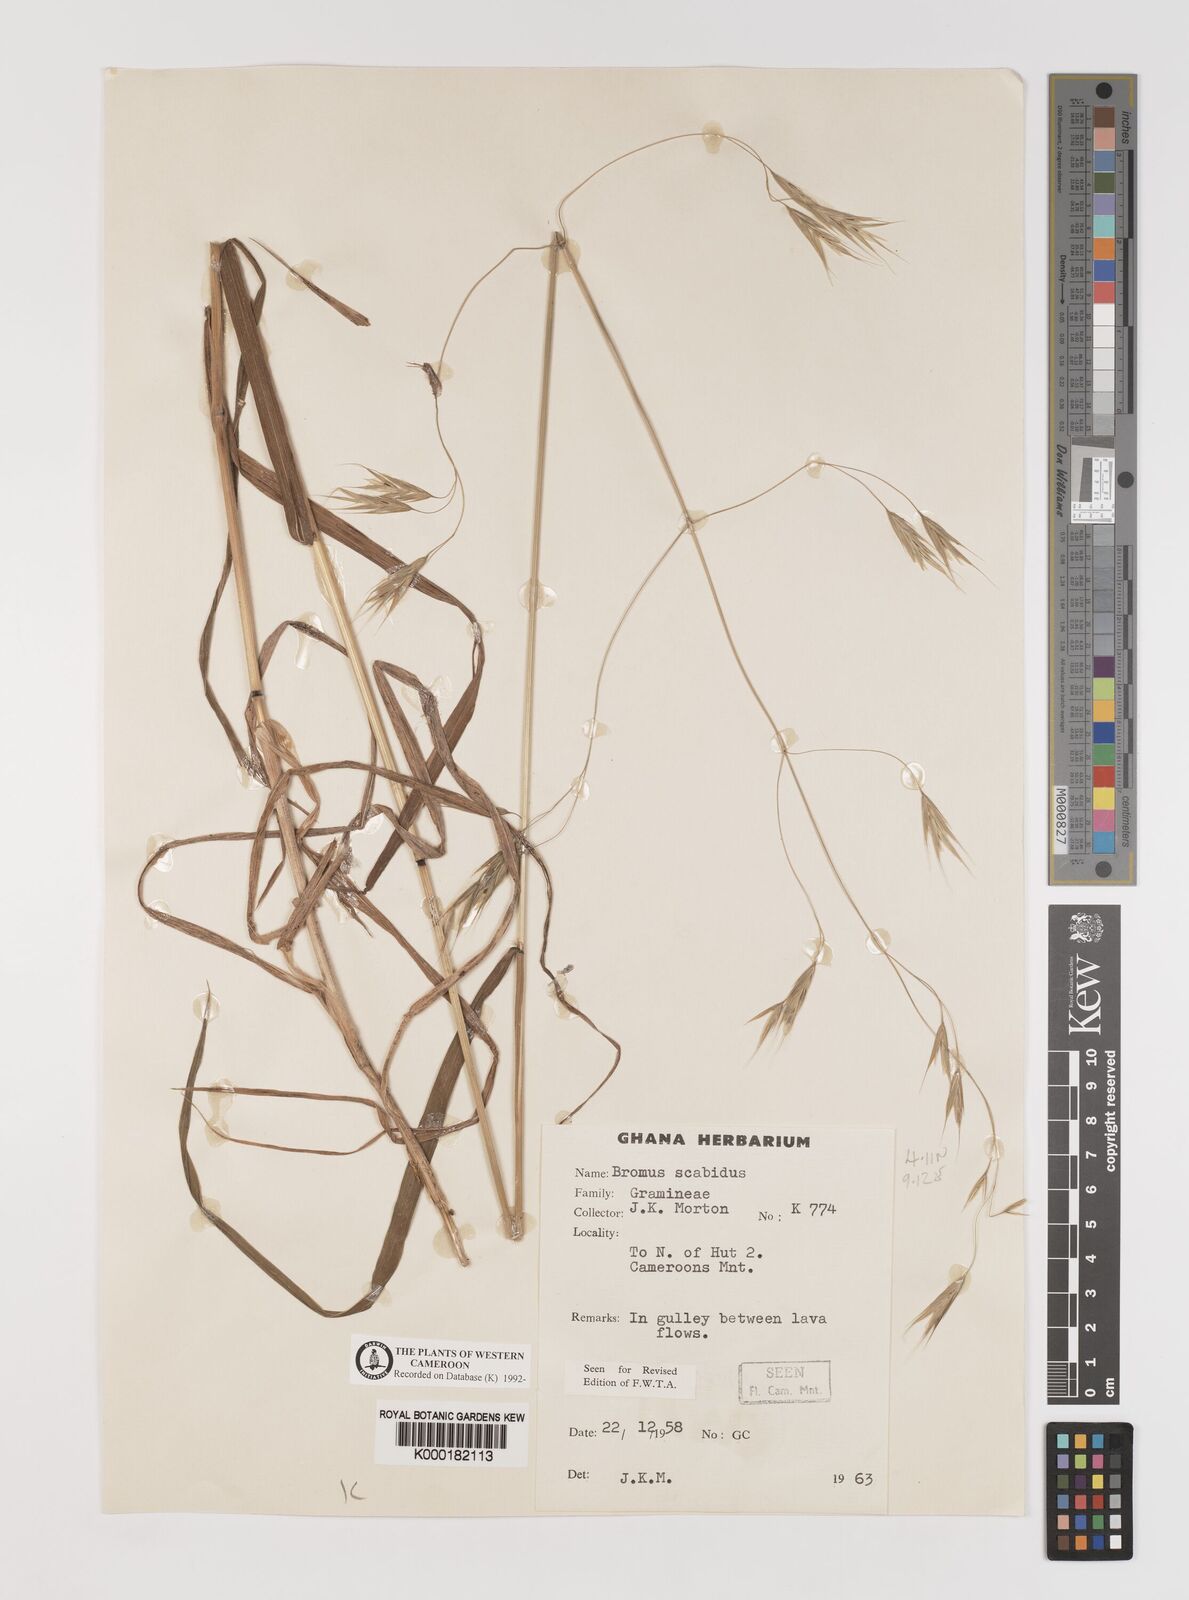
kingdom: Plantae
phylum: Tracheophyta
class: Liliopsida
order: Poales
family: Poaceae
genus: Bromus
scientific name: Bromus leptoclados
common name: Mountain bromegrass
